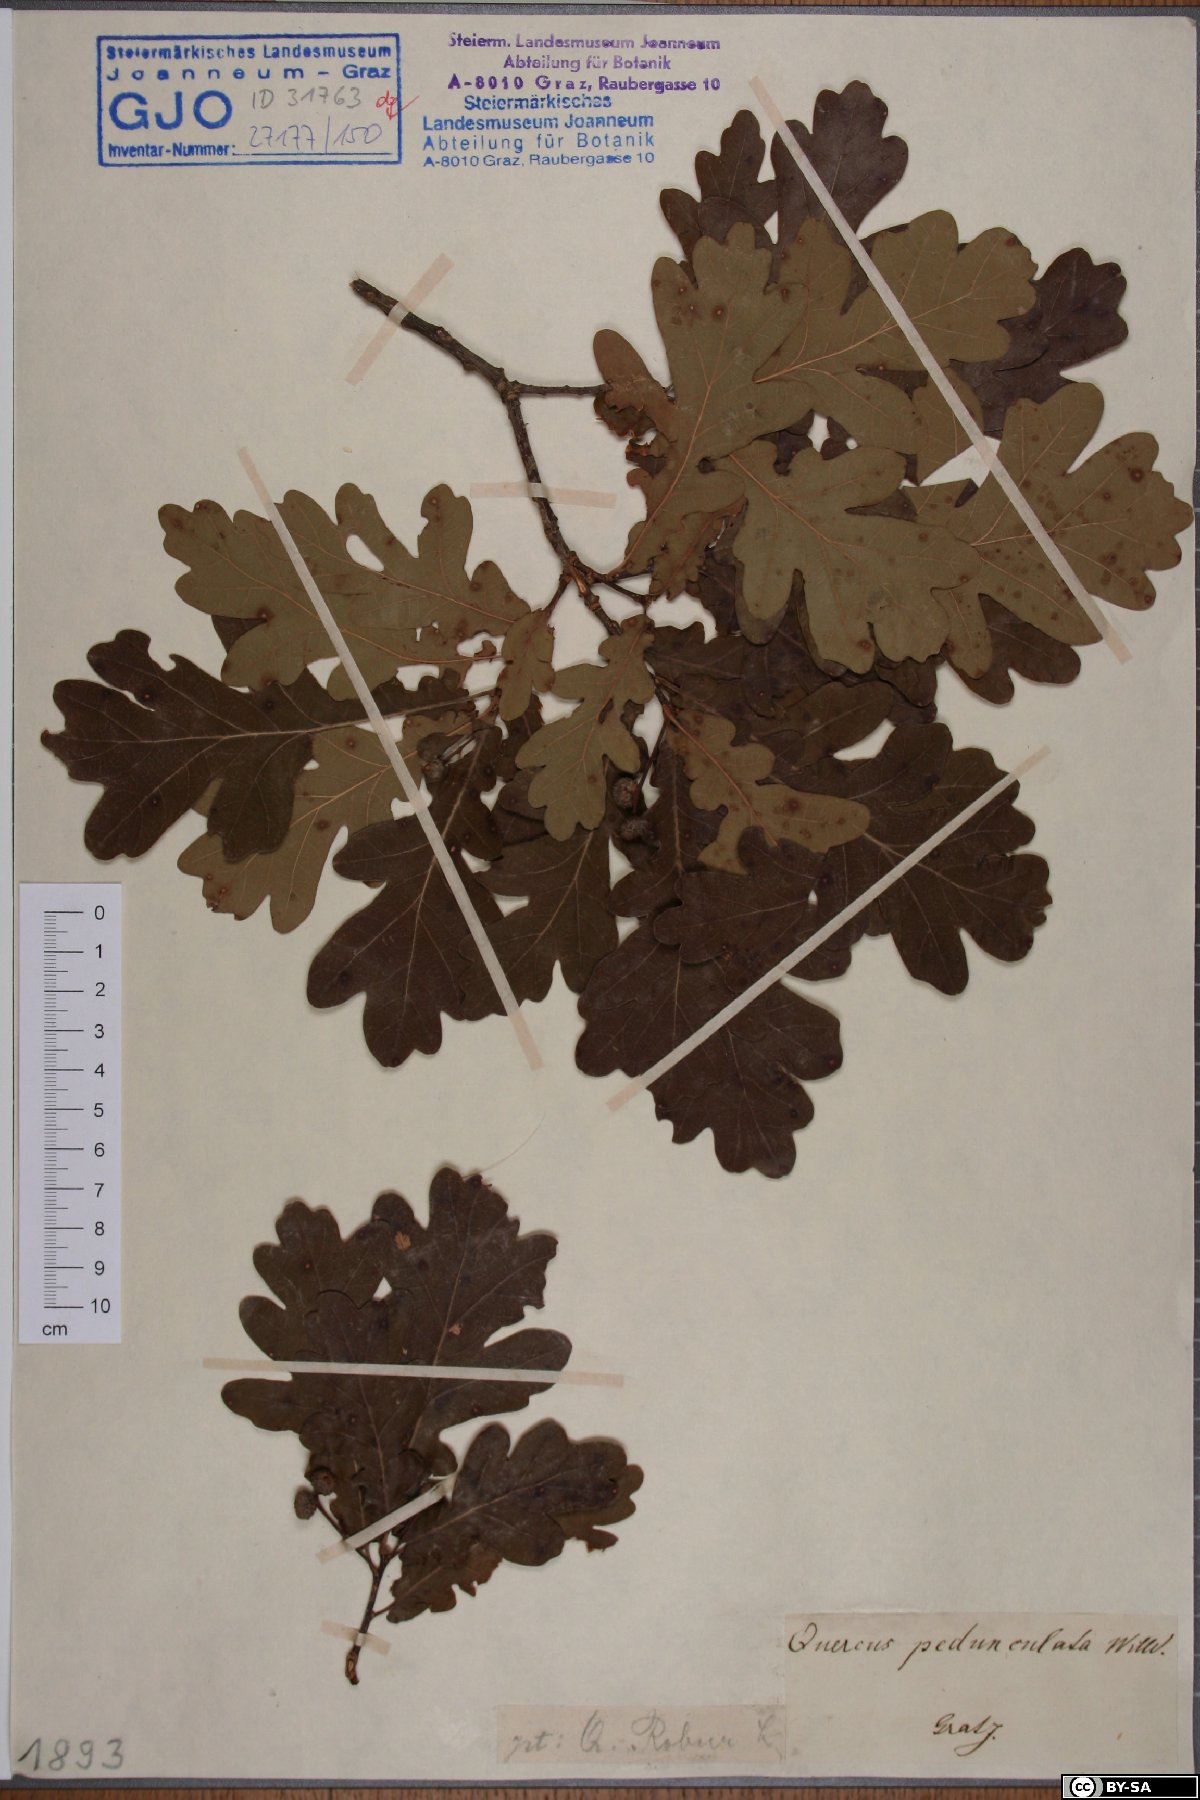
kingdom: Plantae
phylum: Tracheophyta
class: Magnoliopsida
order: Fagales
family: Fagaceae
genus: Quercus
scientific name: Quercus robur
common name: Pedunculate oak
